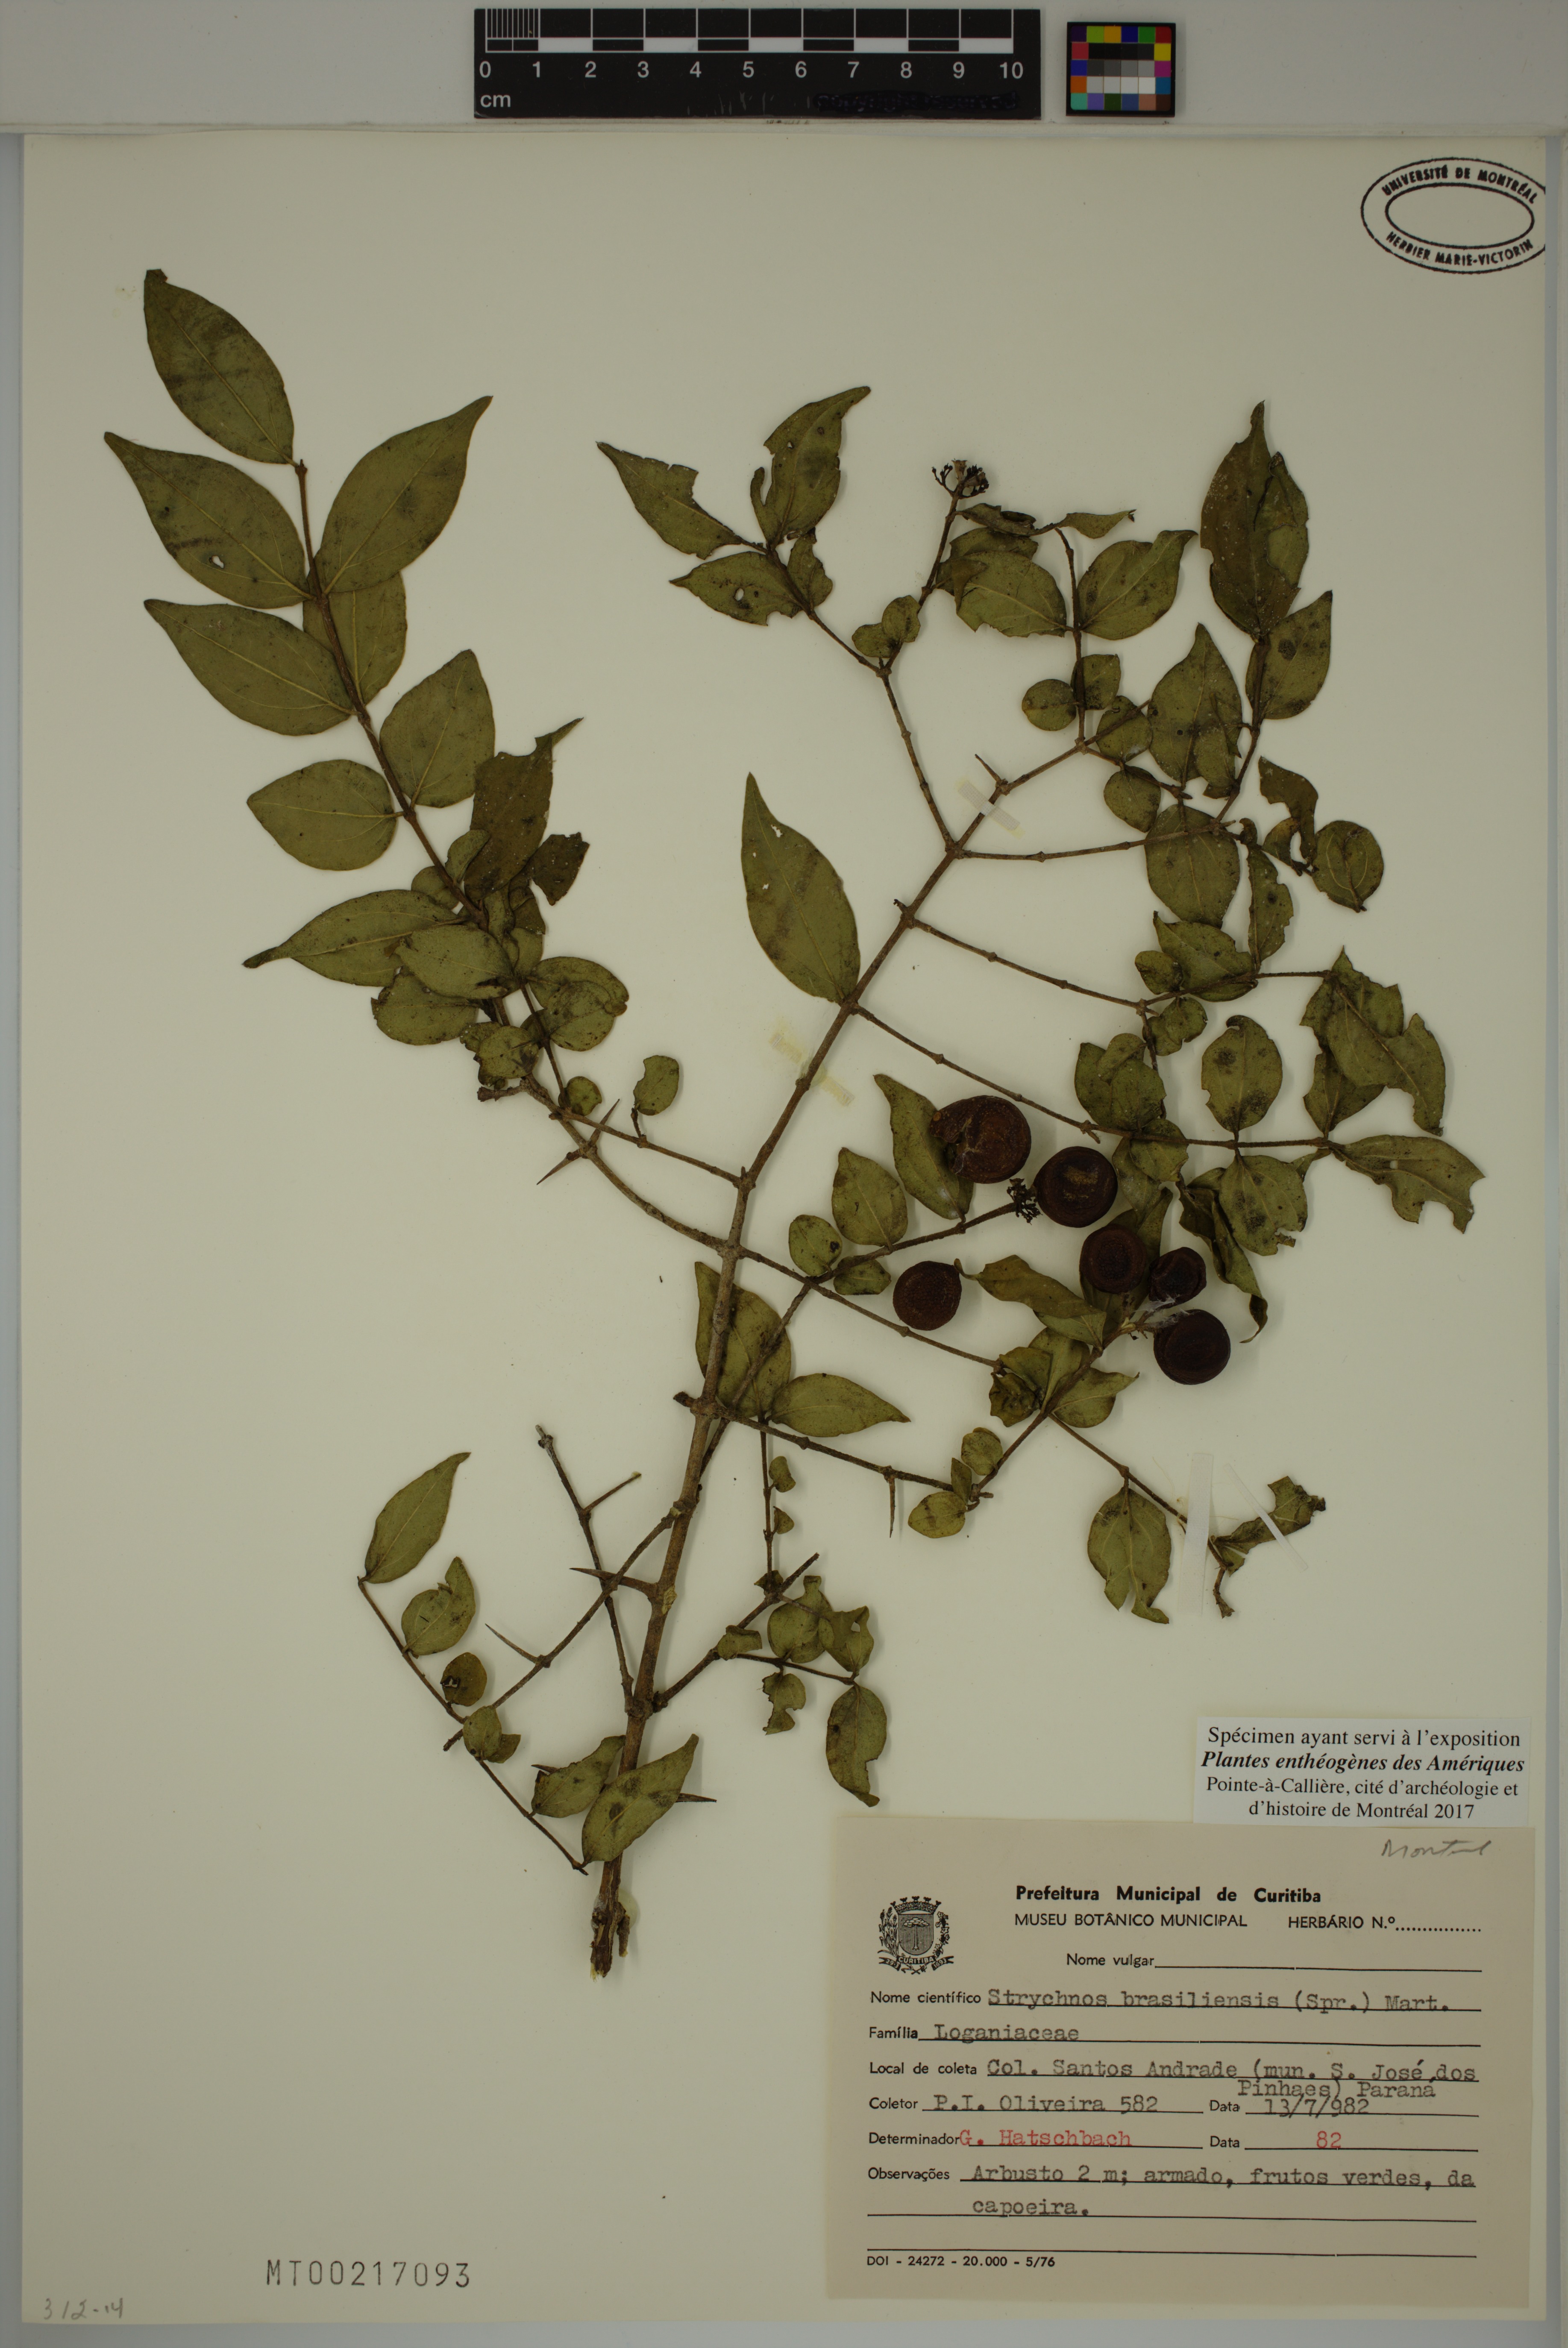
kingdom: Plantae
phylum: Tracheophyta
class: Magnoliopsida
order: Gentianales
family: Loganiaceae
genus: Strychnos
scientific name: Strychnos brasiliensis
